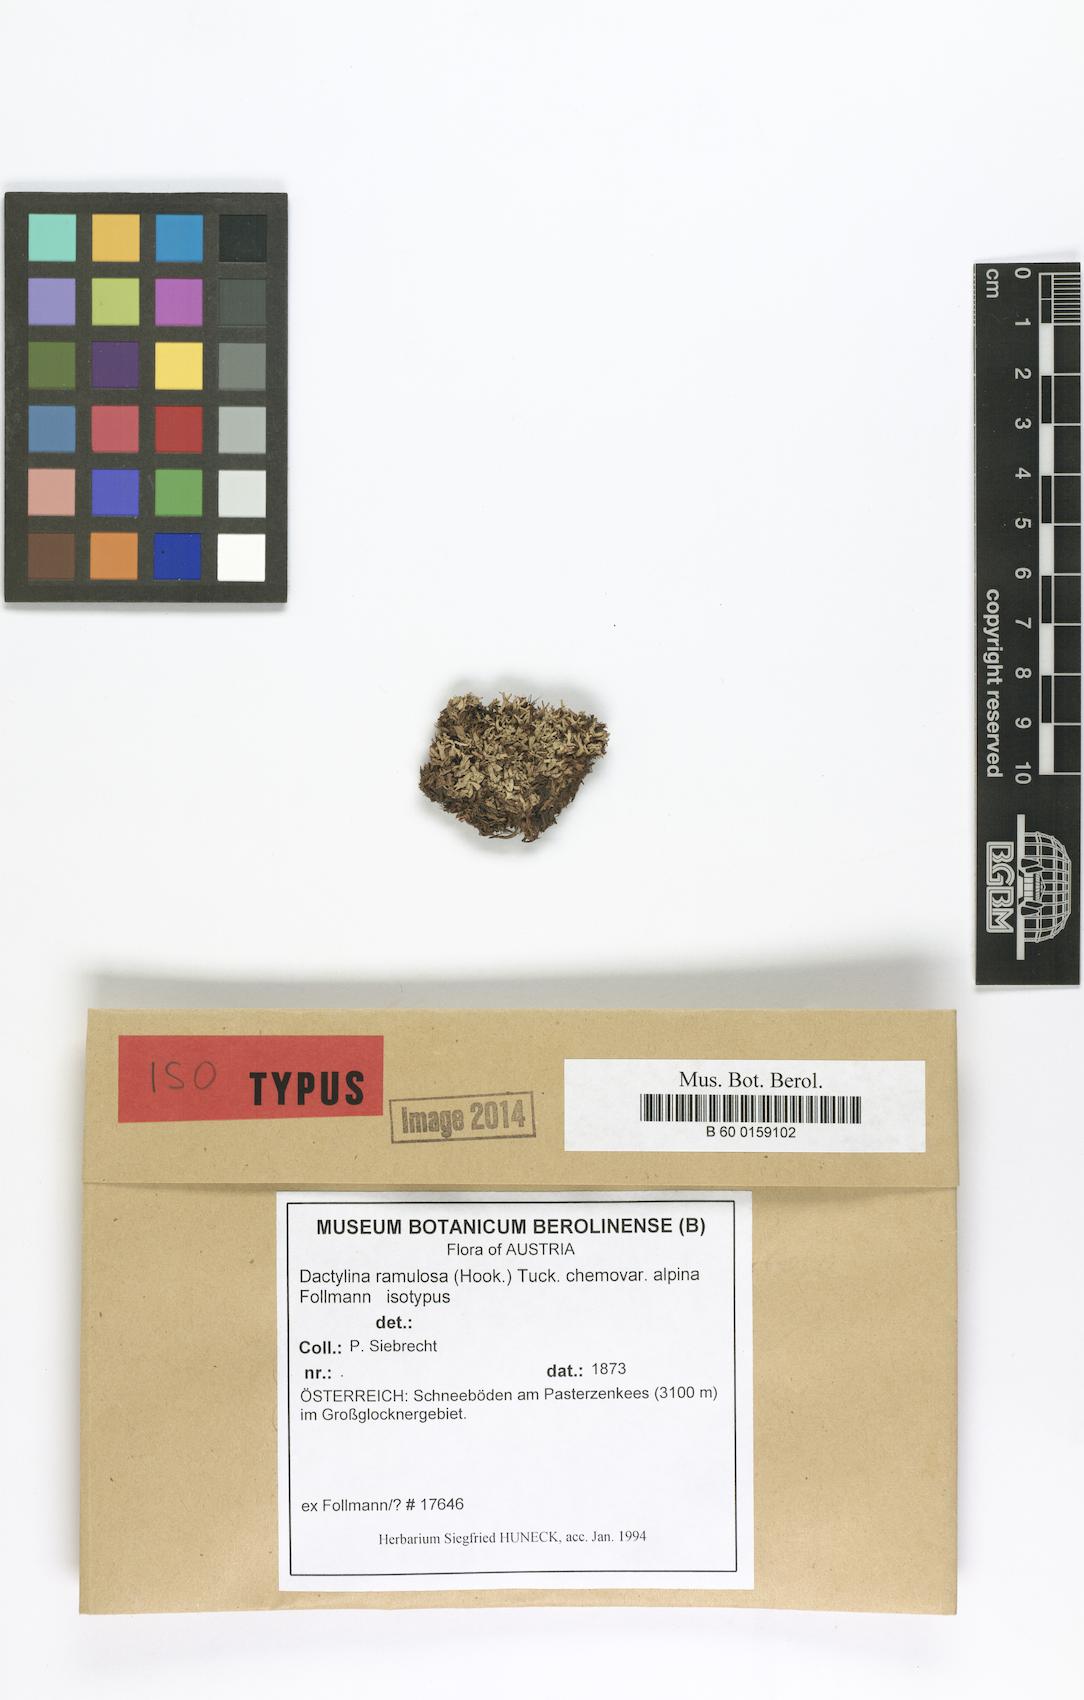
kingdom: Fungi
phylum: Ascomycota
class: Lecanoromycetes
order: Lecanorales
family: Parmeliaceae
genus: Dactylina
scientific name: Dactylina ramulosa
